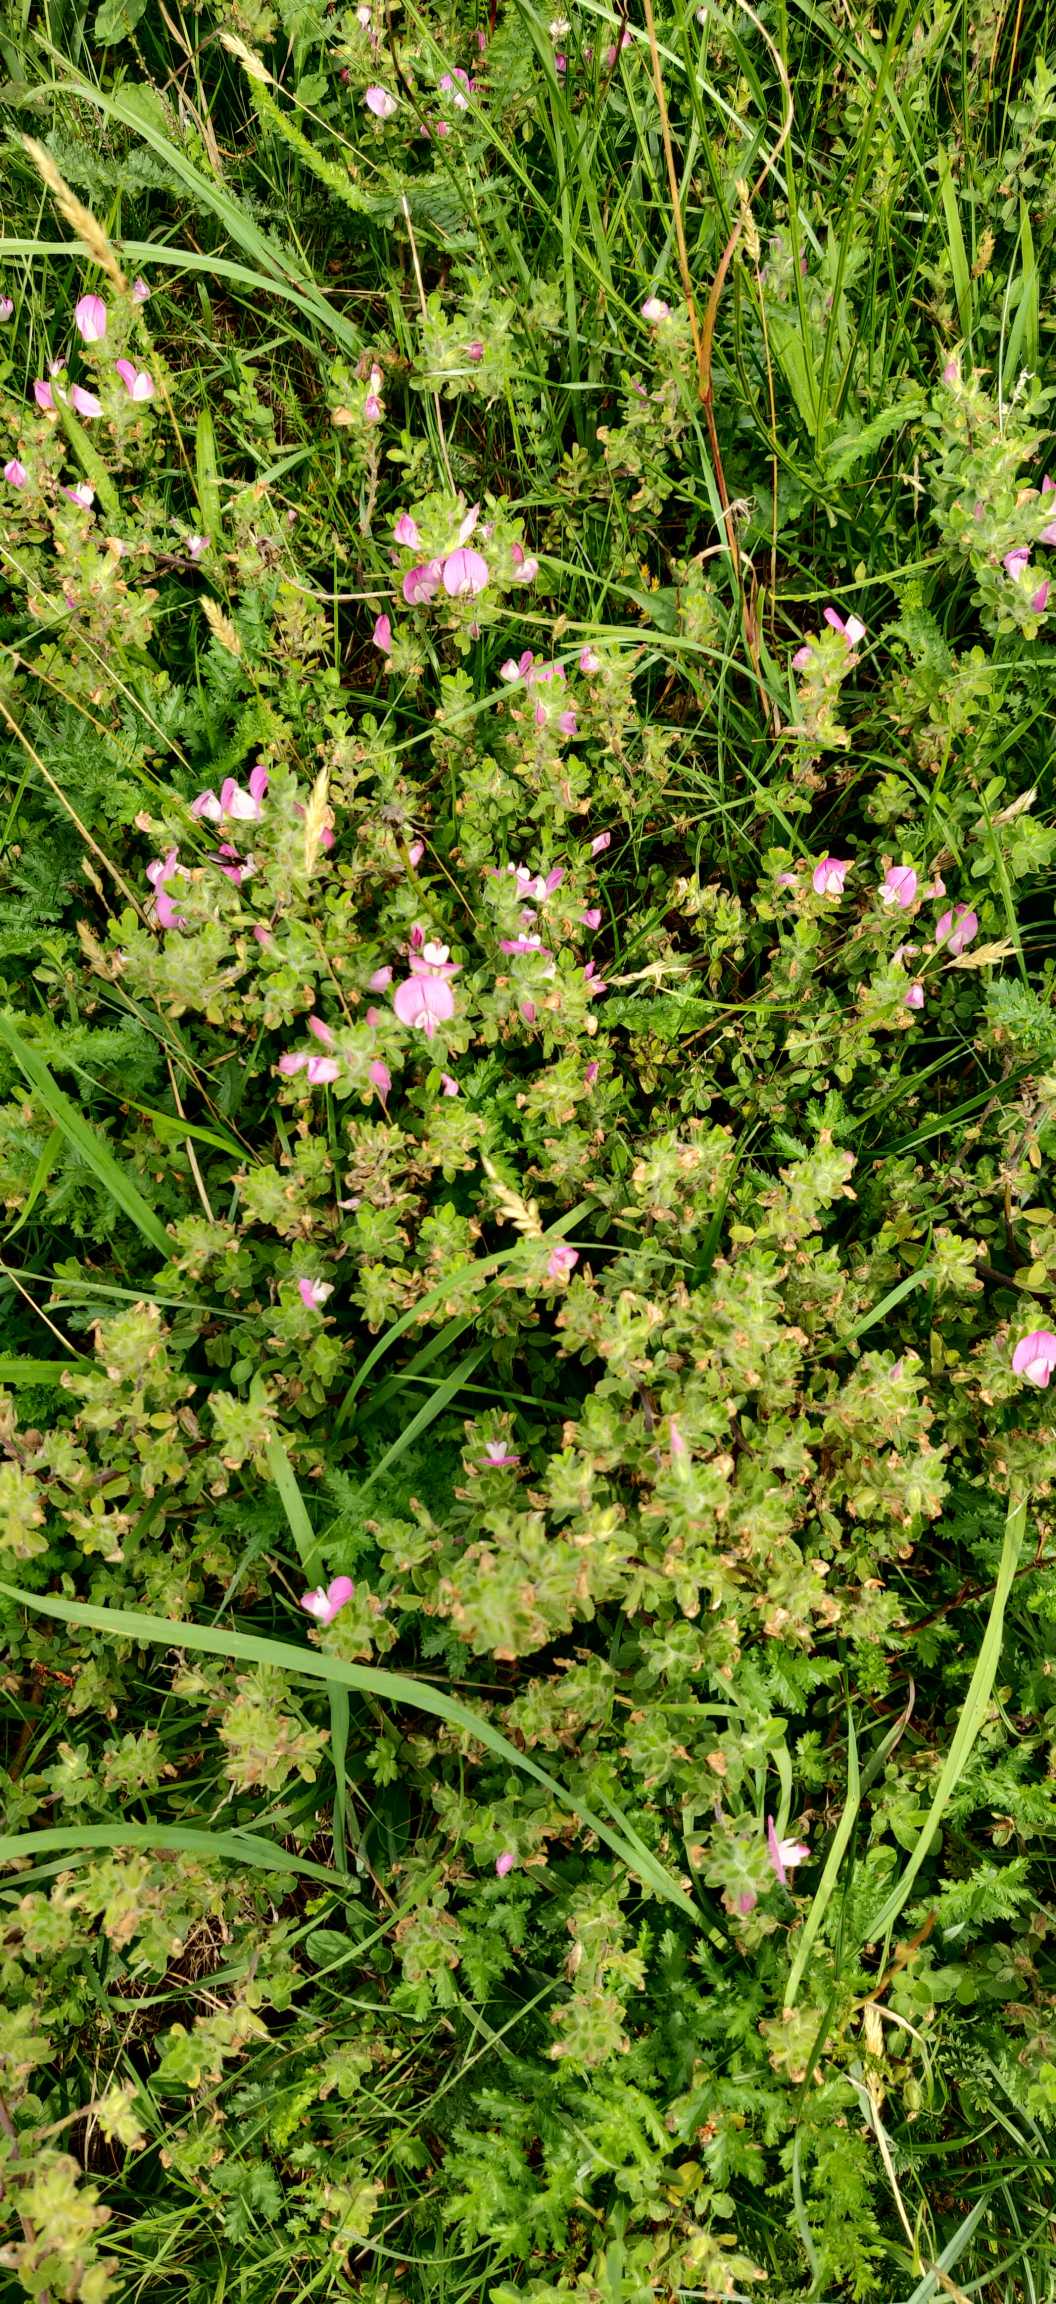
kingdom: Plantae
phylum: Tracheophyta
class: Magnoliopsida
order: Fabales
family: Fabaceae
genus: Ononis
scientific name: Ononis spinosa
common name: Mark-krageklo
